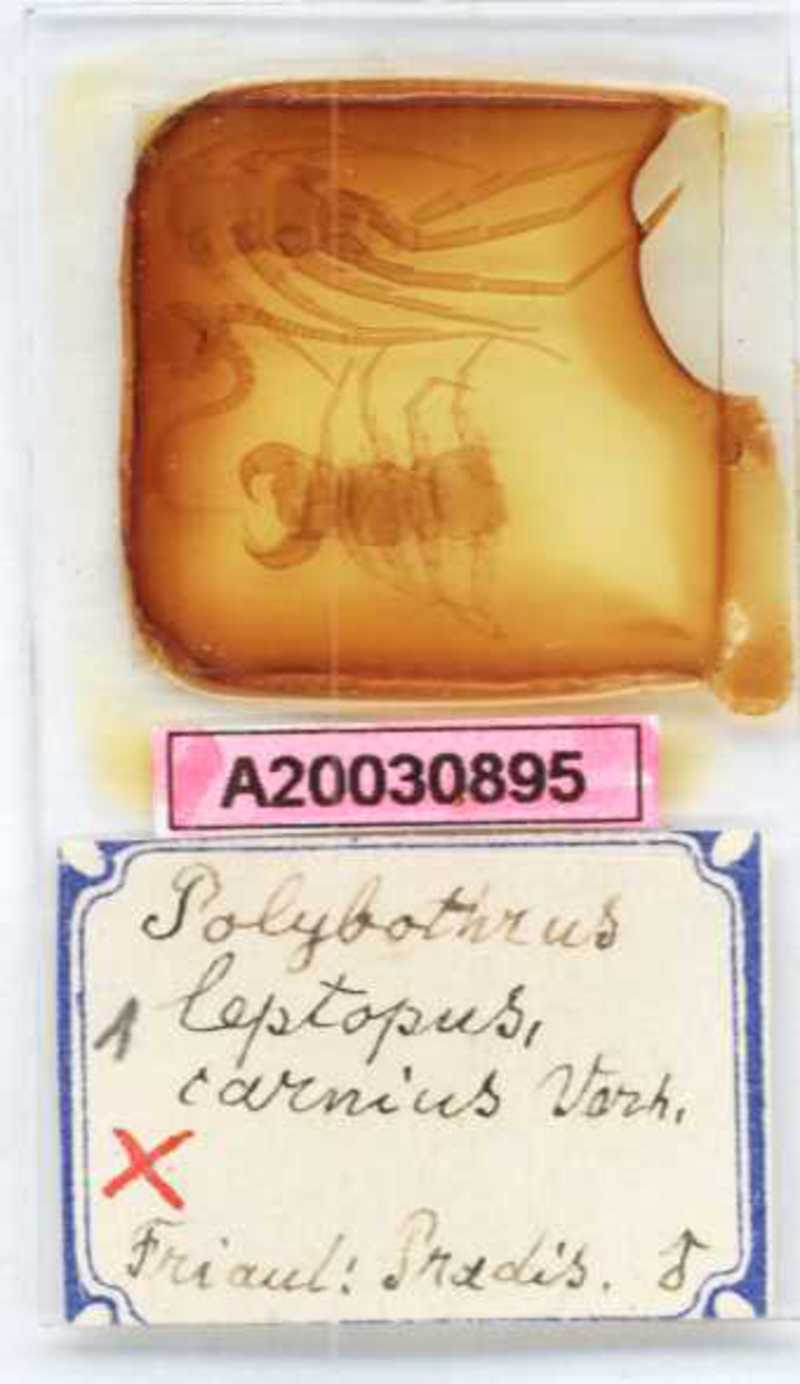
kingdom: Animalia
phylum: Arthropoda
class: Chilopoda
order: Lithobiomorpha
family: Lithobiidae
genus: Polybothrus
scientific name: Polybothrus leptopus
